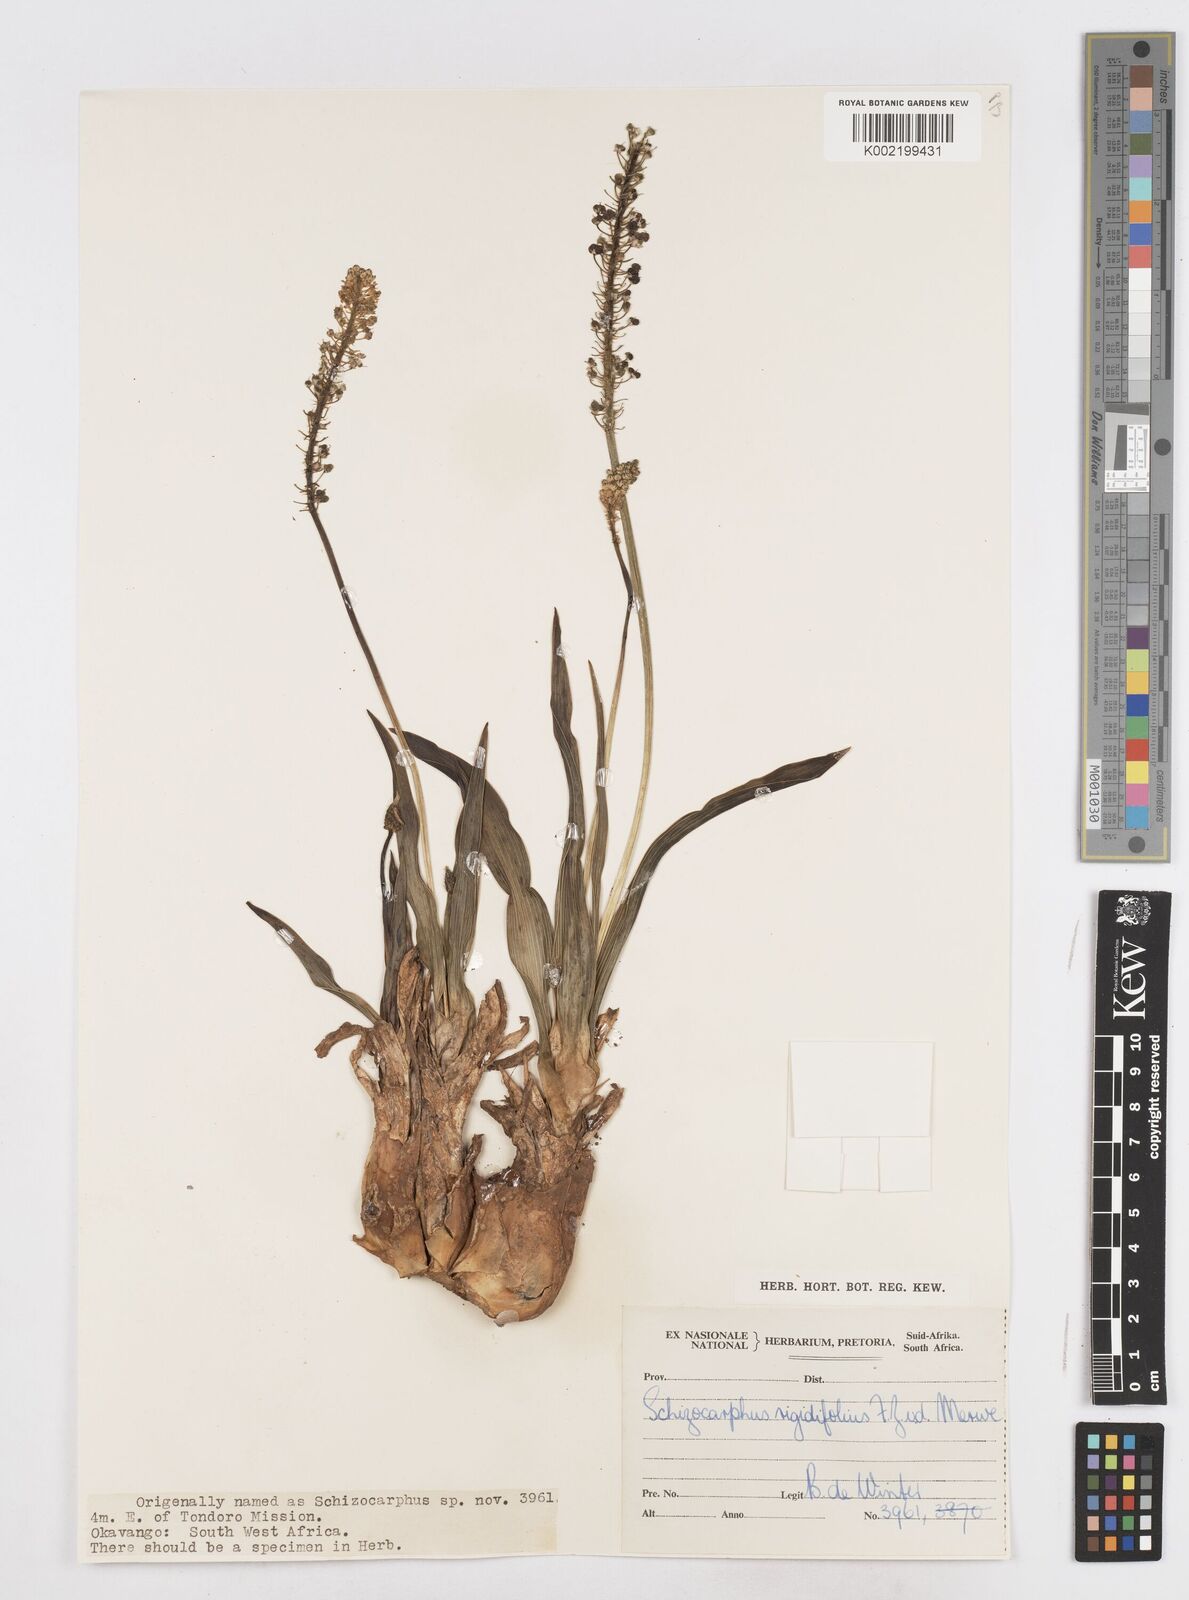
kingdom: Plantae
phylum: Tracheophyta
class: Liliopsida
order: Asparagales
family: Asparagaceae
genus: Schizocarphus
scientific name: Schizocarphus nervosus
